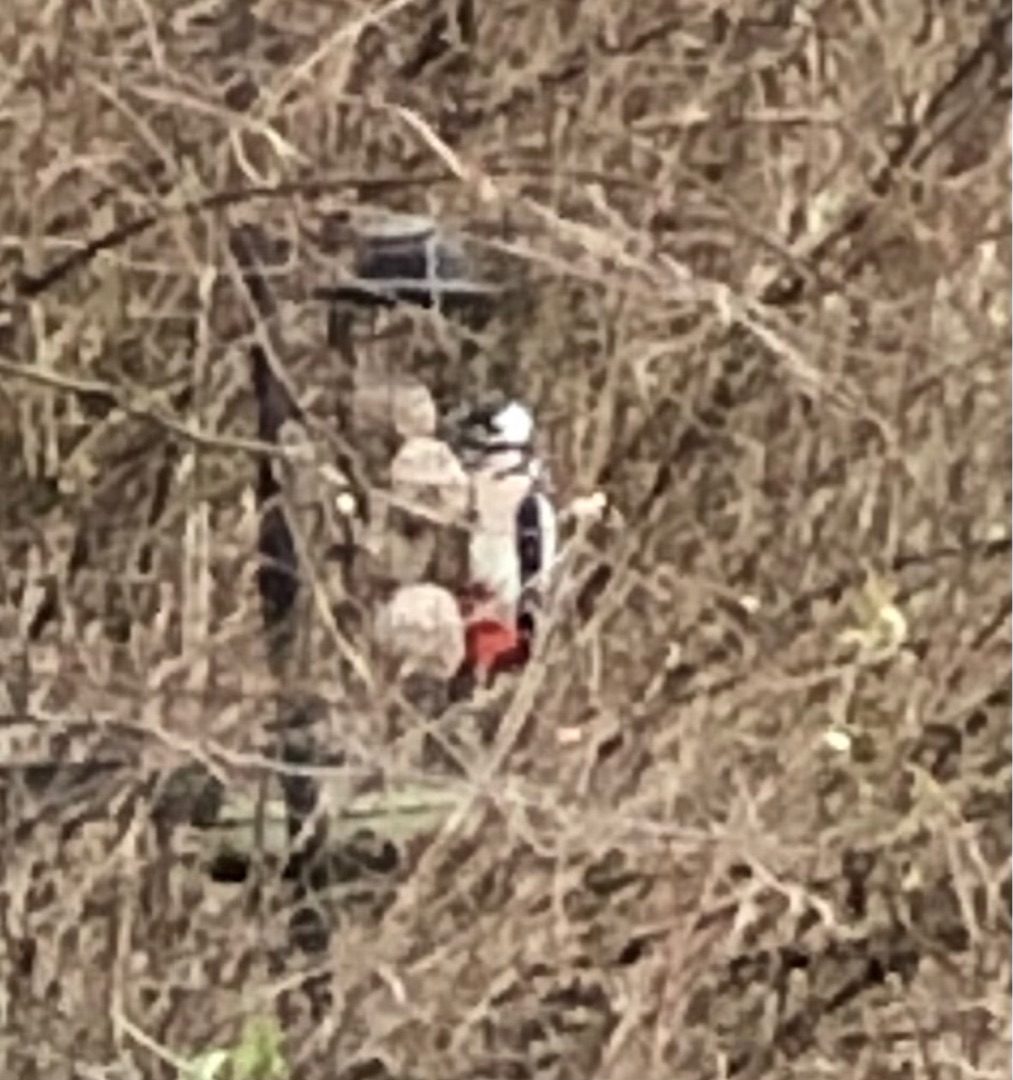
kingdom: Animalia
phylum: Chordata
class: Aves
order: Piciformes
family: Picidae
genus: Dendrocopos
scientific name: Dendrocopos major
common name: Stor flagspætte
